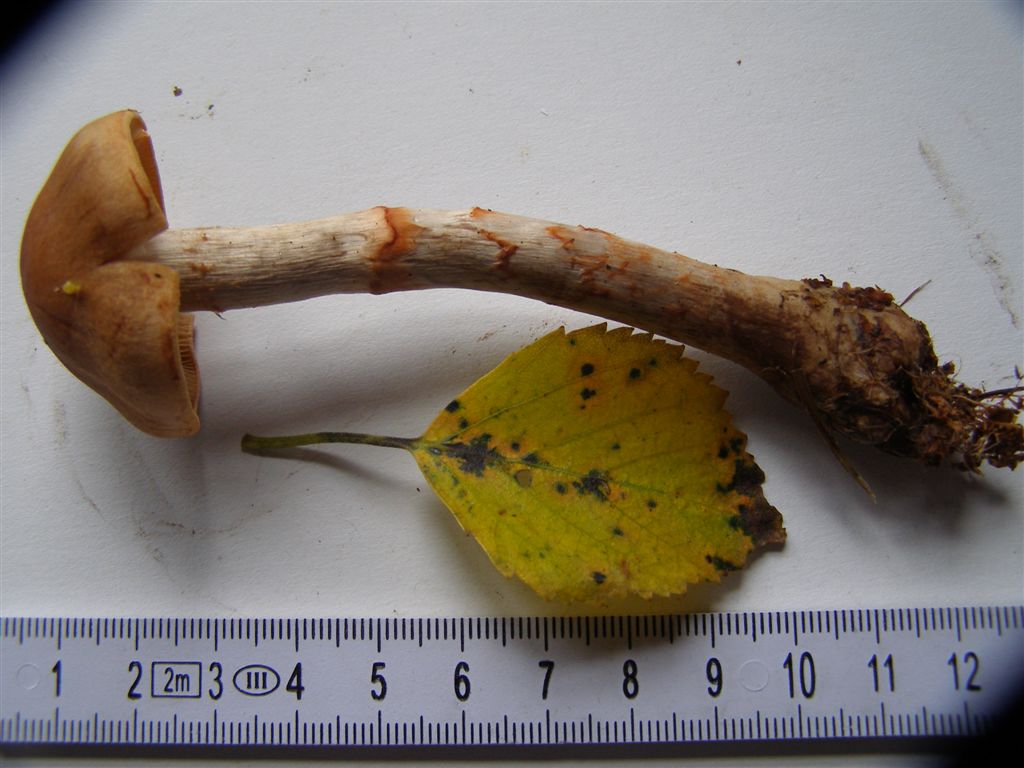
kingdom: Fungi
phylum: Basidiomycota
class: Agaricomycetes
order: Agaricales
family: Cortinariaceae
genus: Cortinarius
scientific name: Cortinarius armillatus
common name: cinnoberbæltet slørhat
